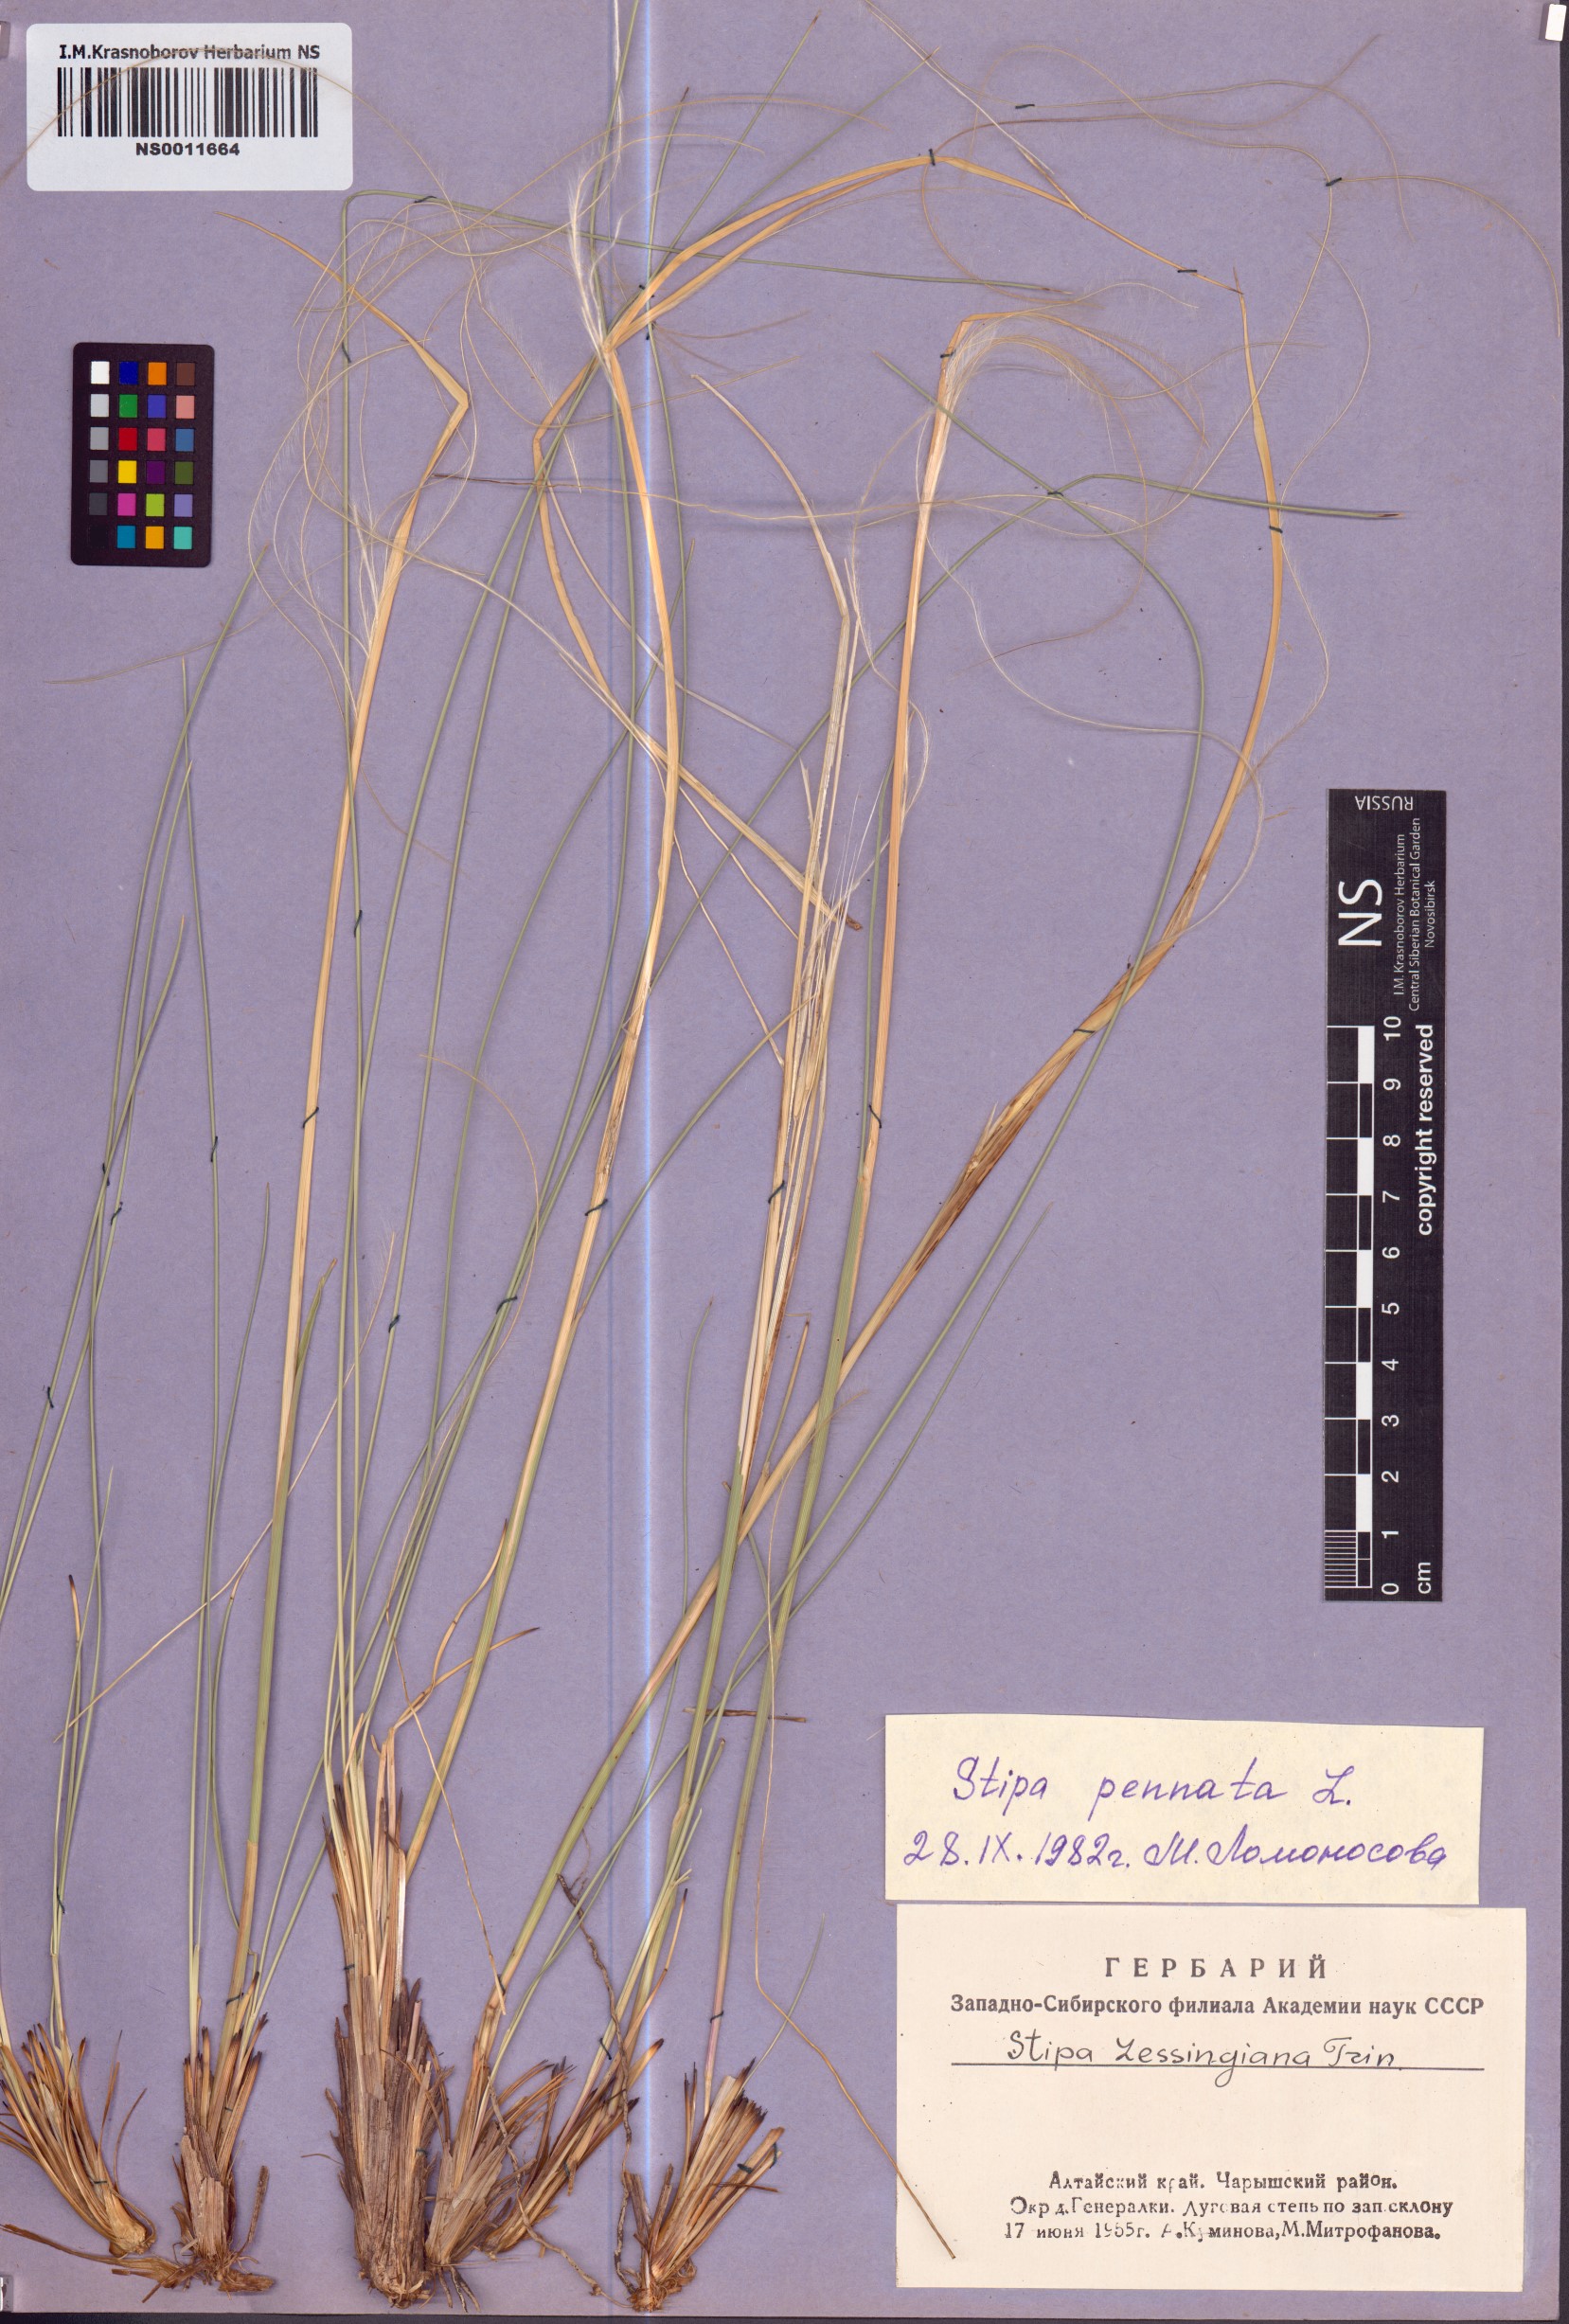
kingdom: Plantae
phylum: Tracheophyta
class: Liliopsida
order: Poales
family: Poaceae
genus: Stipa
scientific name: Stipa pennata
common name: European feather grass
